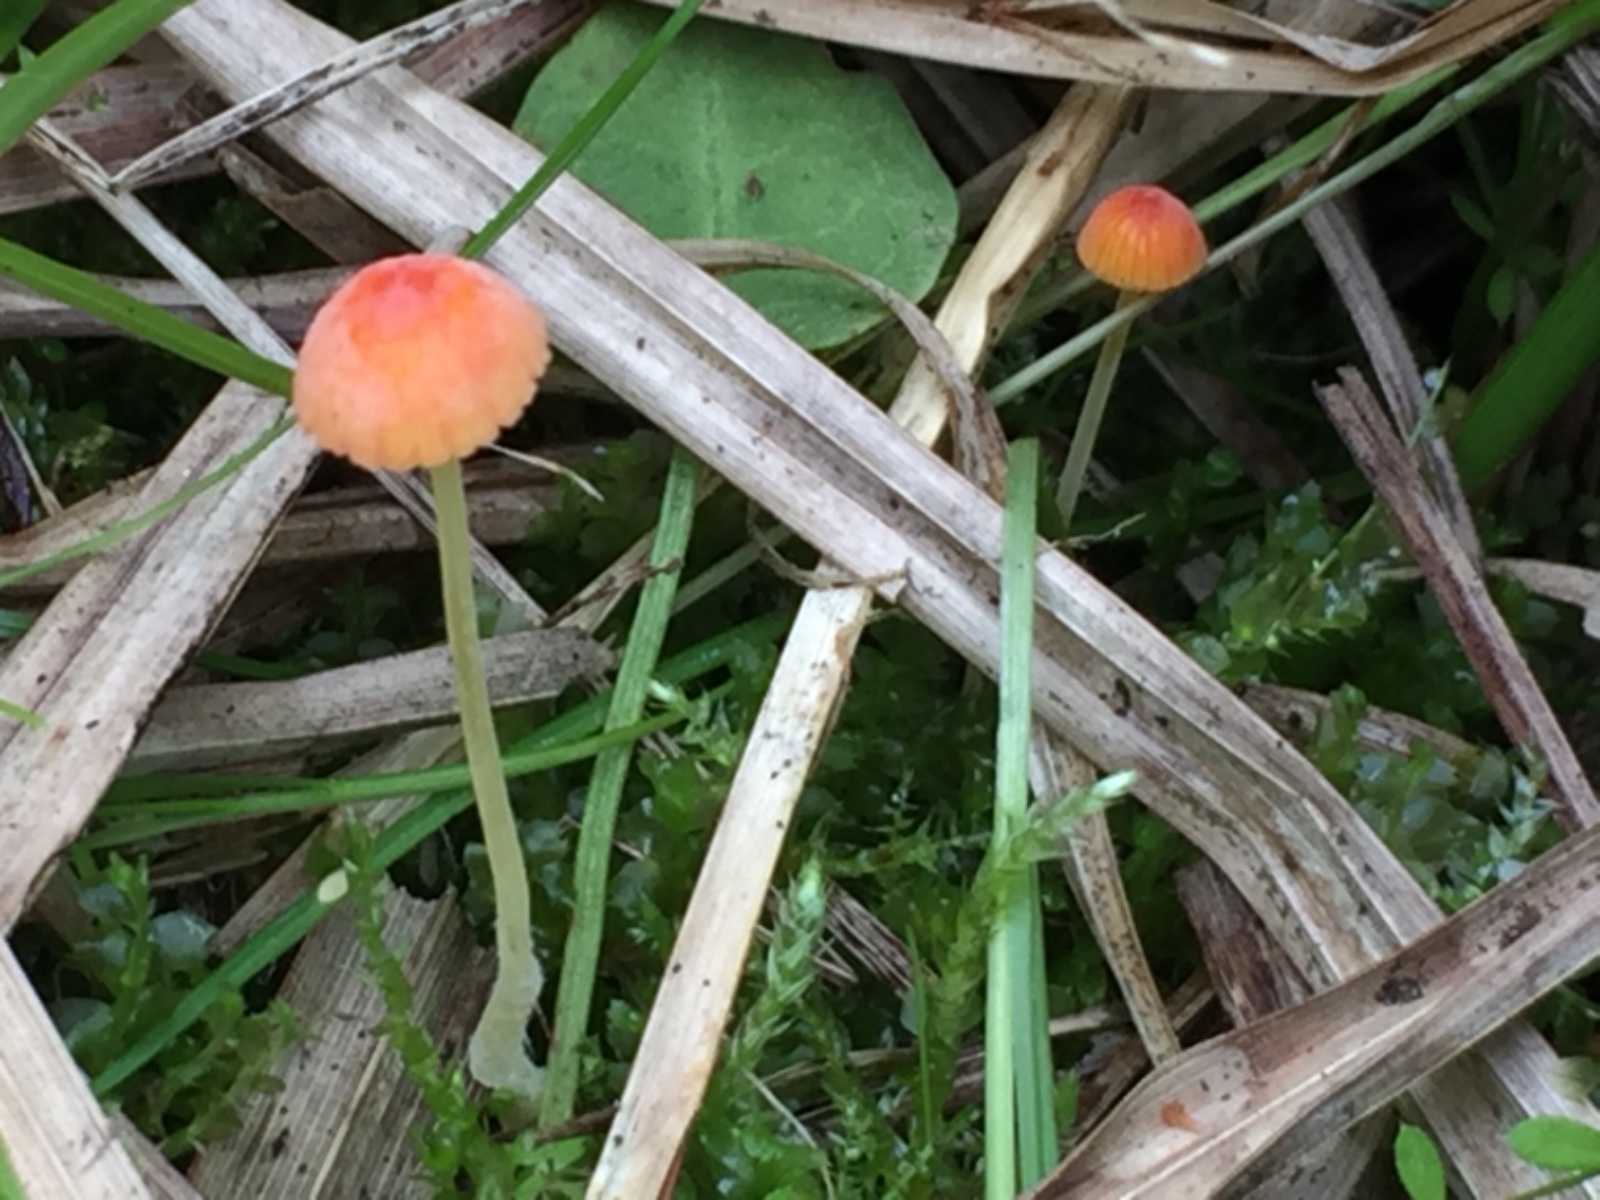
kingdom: Fungi
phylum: Basidiomycota
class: Agaricomycetes
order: Agaricales
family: Mycenaceae
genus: Mycena
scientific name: Mycena acicula
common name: orange huesvamp
